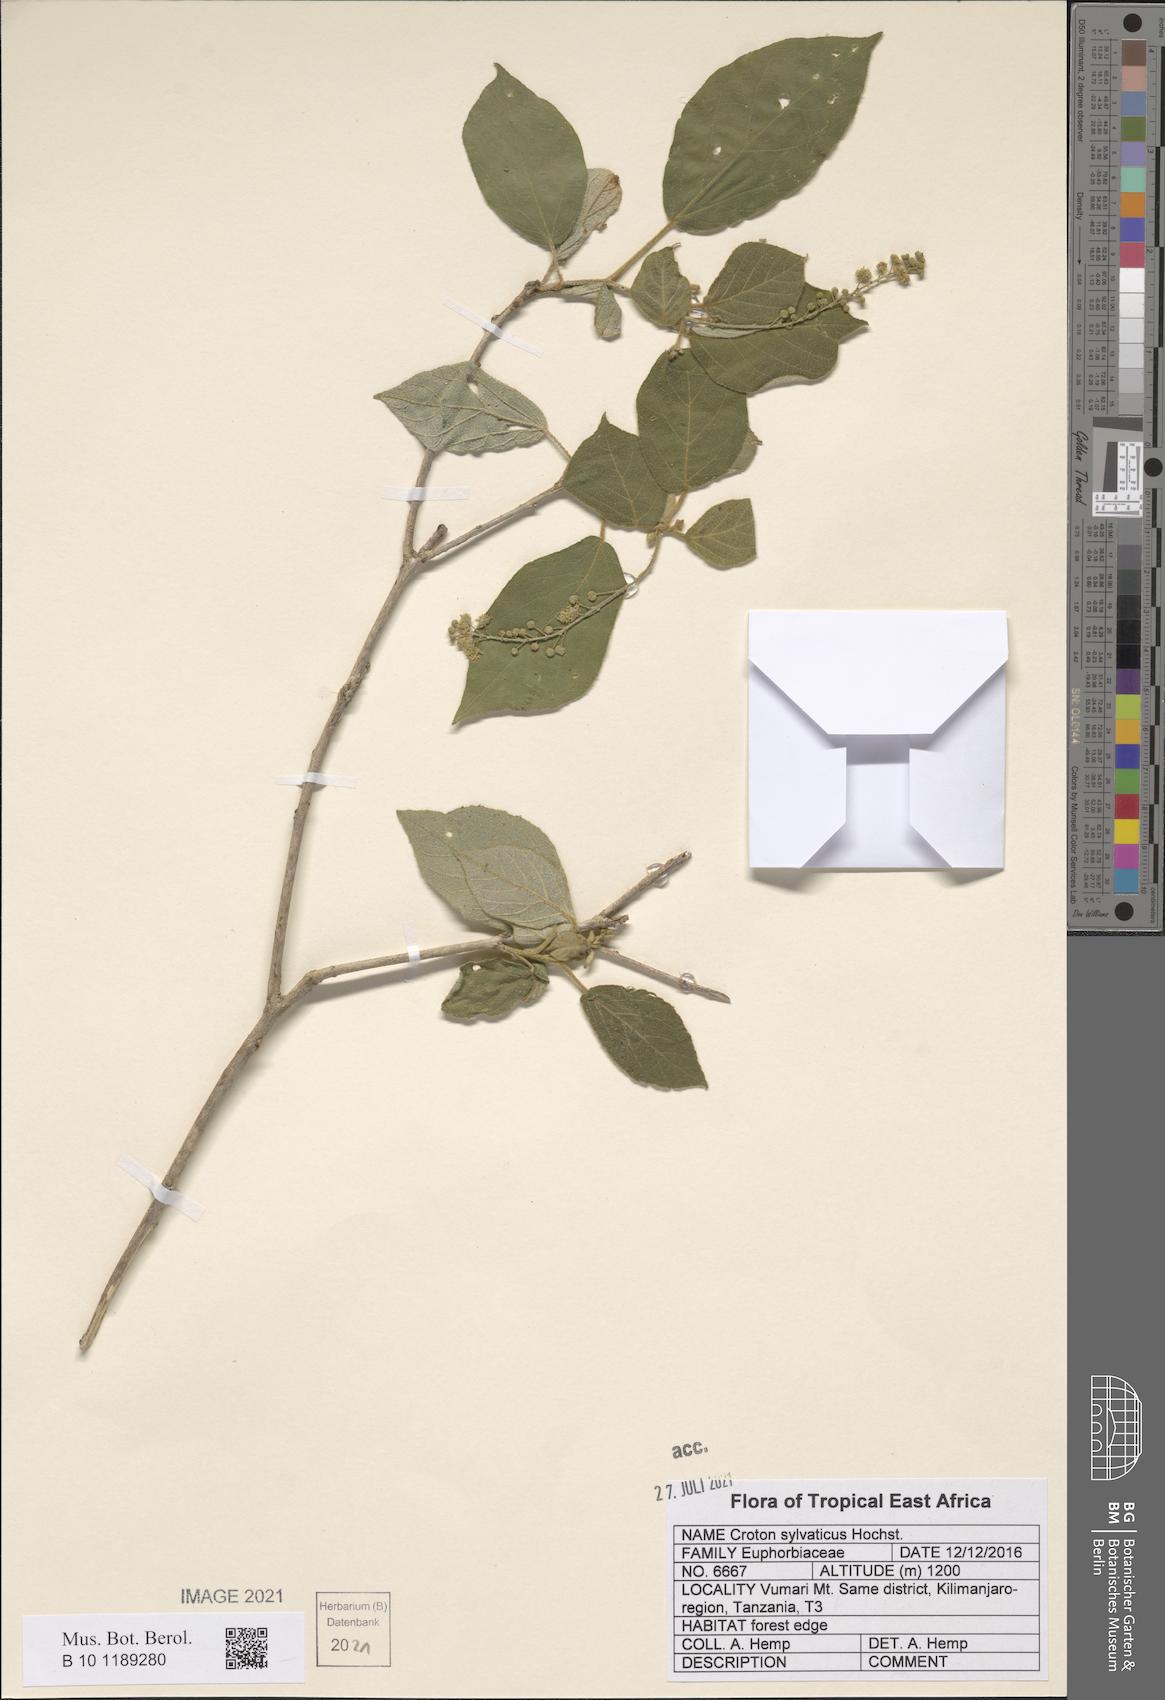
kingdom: Plantae
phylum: Tracheophyta
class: Magnoliopsida
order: Malpighiales
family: Euphorbiaceae
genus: Croton
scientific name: Croton sylvaticus
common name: Forest croton
